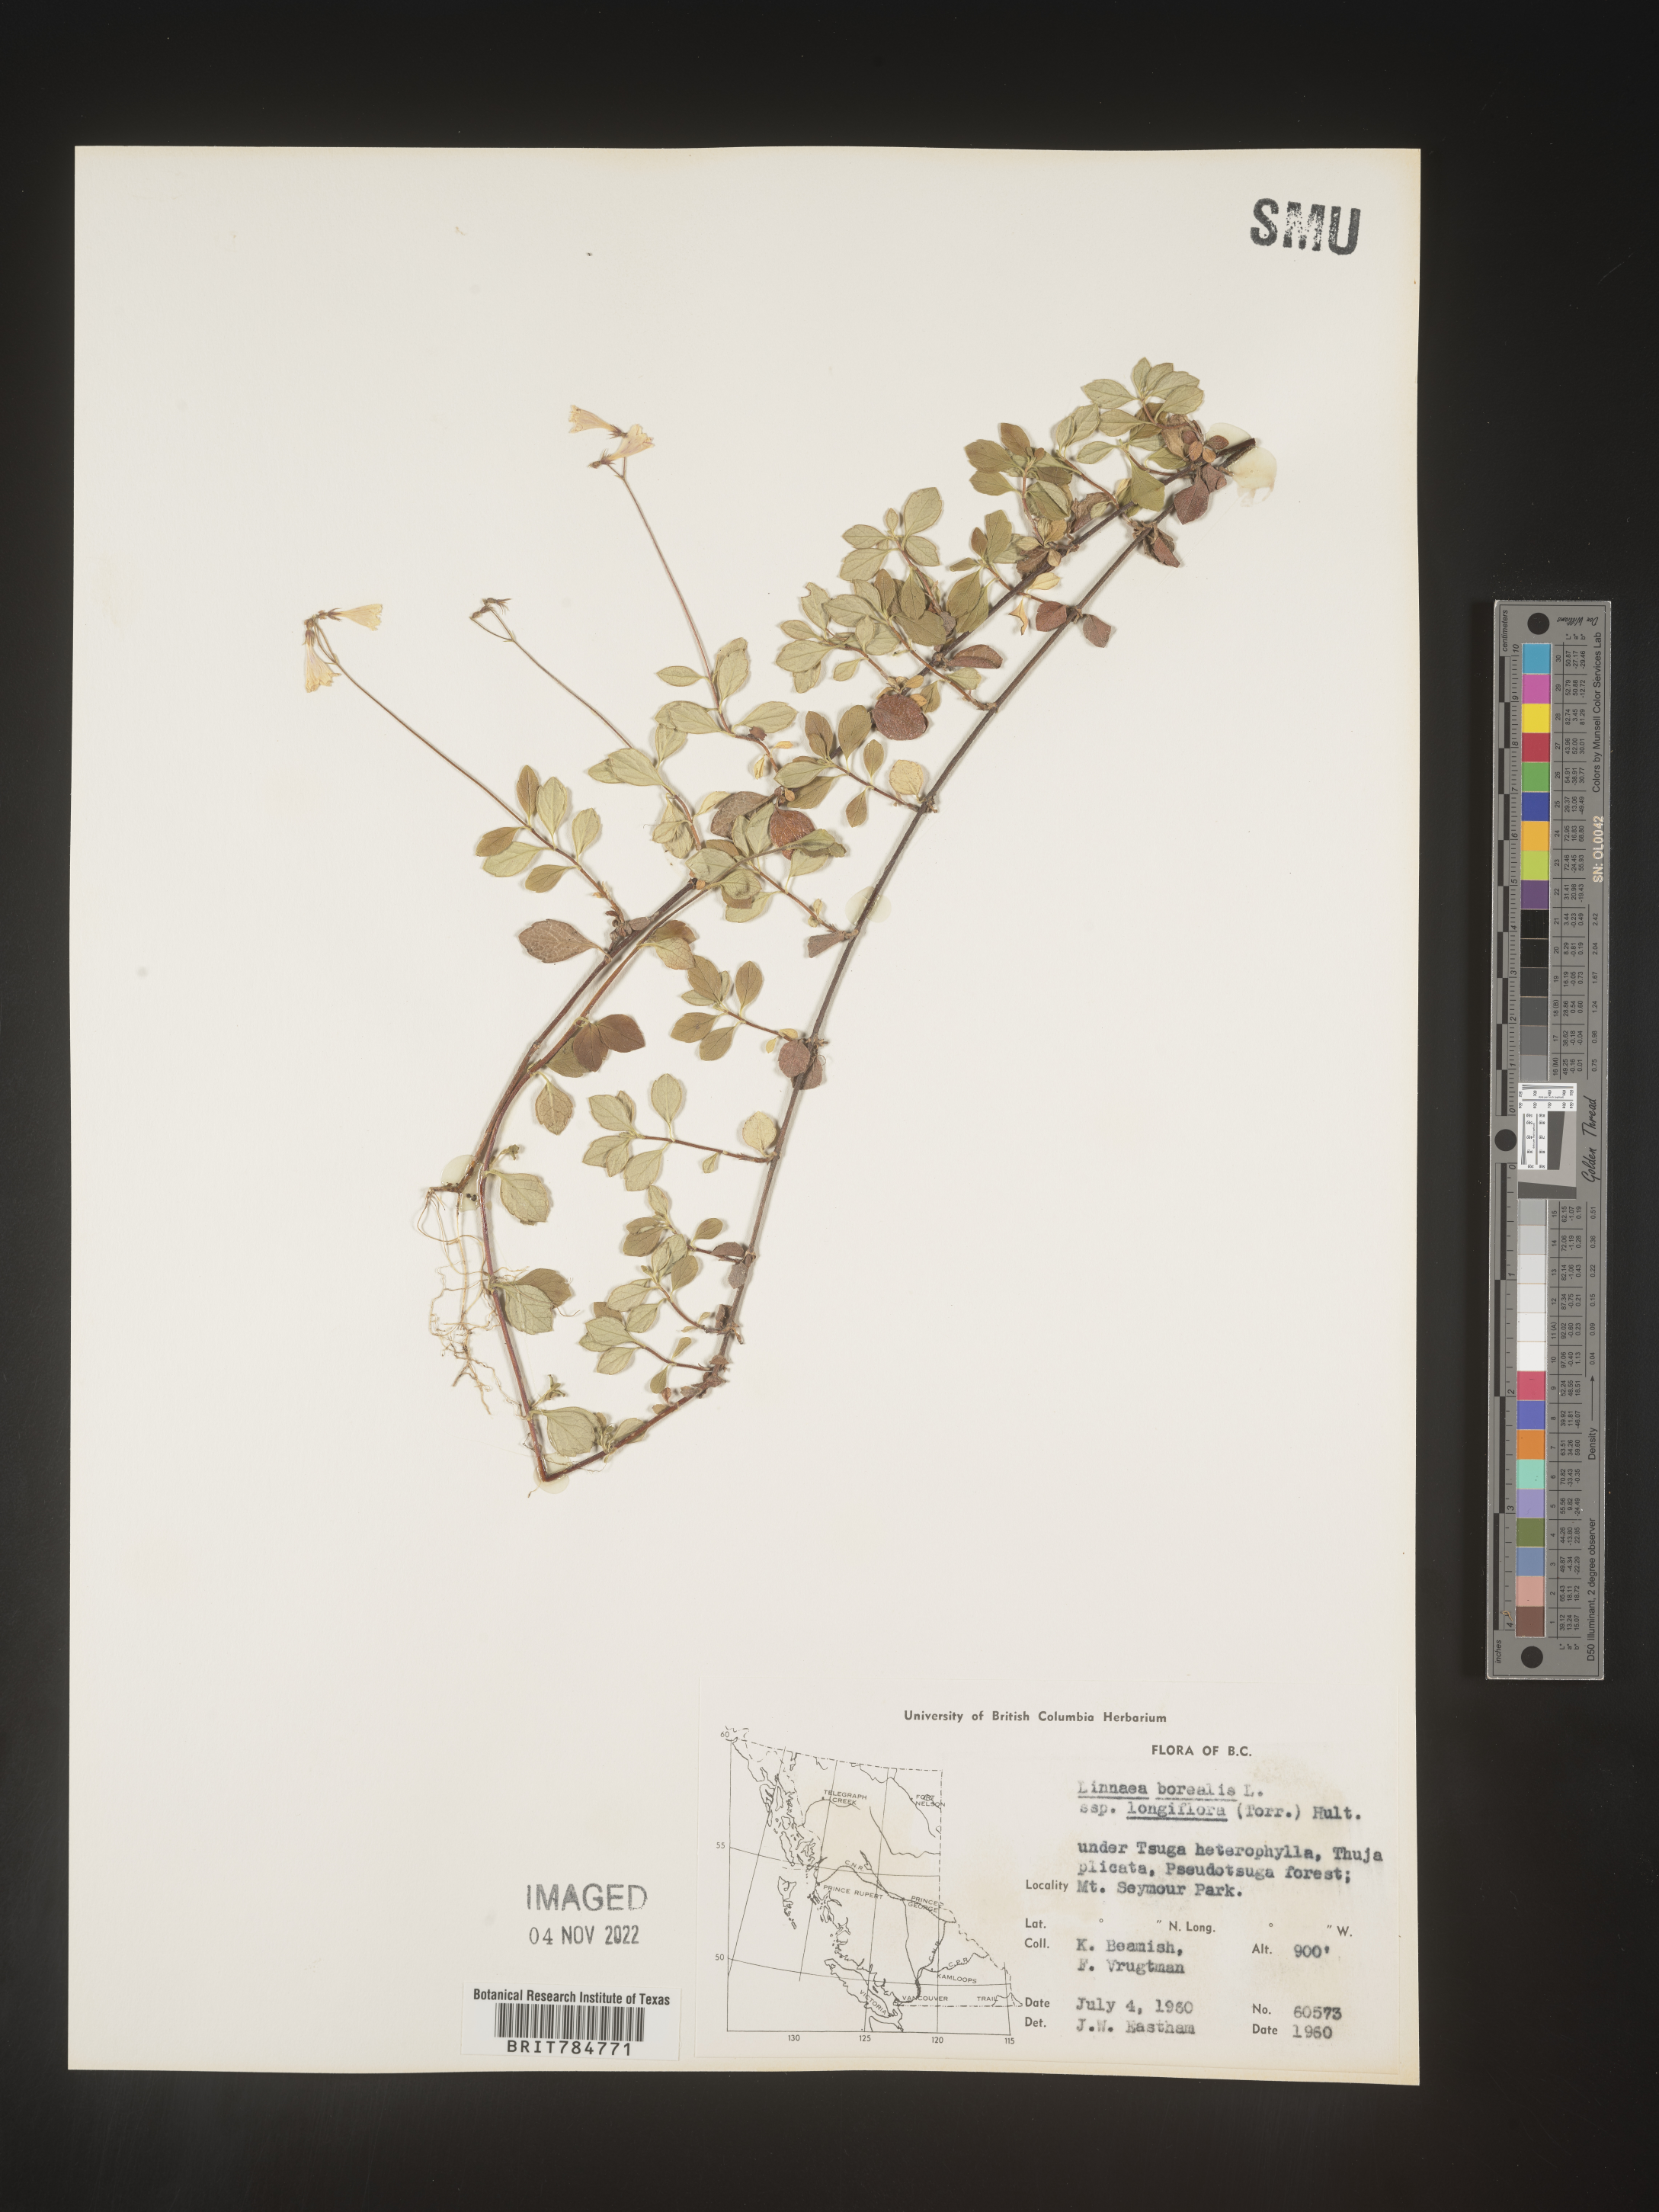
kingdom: Plantae
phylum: Tracheophyta
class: Magnoliopsida
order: Dipsacales
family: Caprifoliaceae
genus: Linnaea
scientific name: Linnaea borealis
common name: Twinflower
